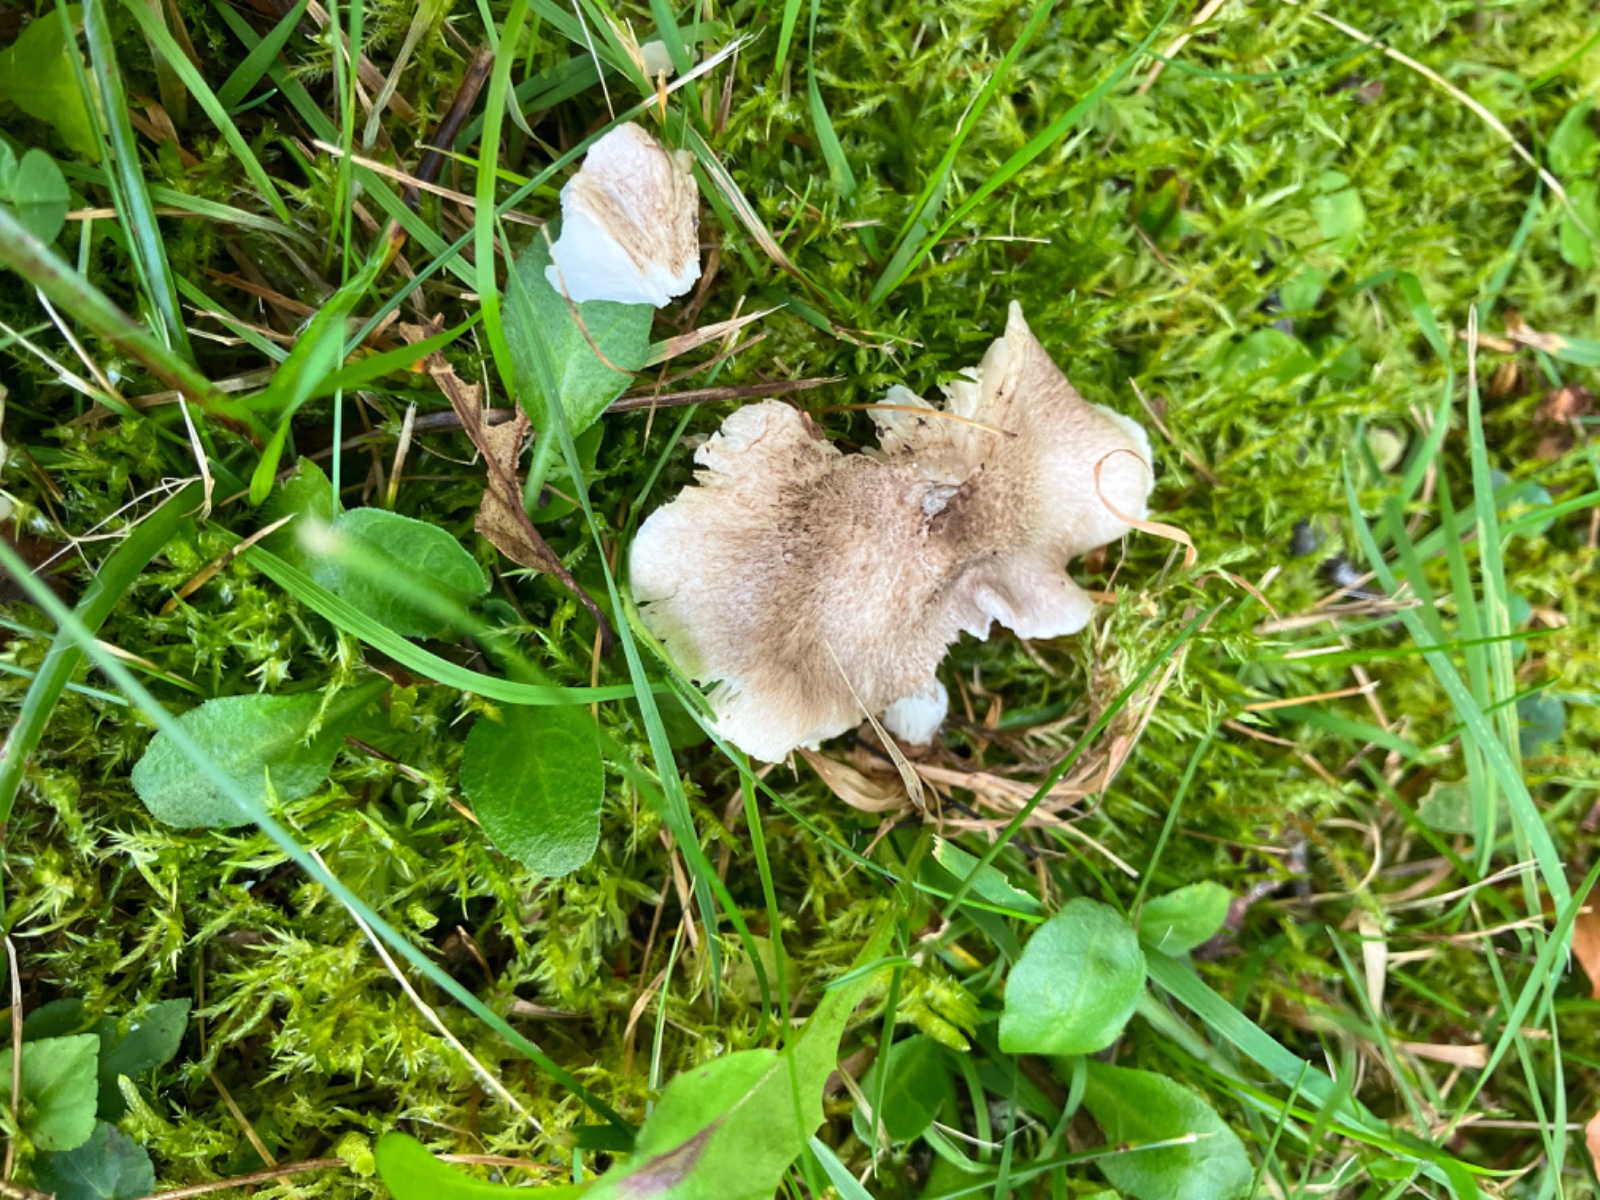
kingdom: Fungi
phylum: Basidiomycota
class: Agaricomycetes
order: Agaricales
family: Tricholomataceae
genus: Tricholoma
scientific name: Tricholoma argyraceum
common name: slør-ridderhat
